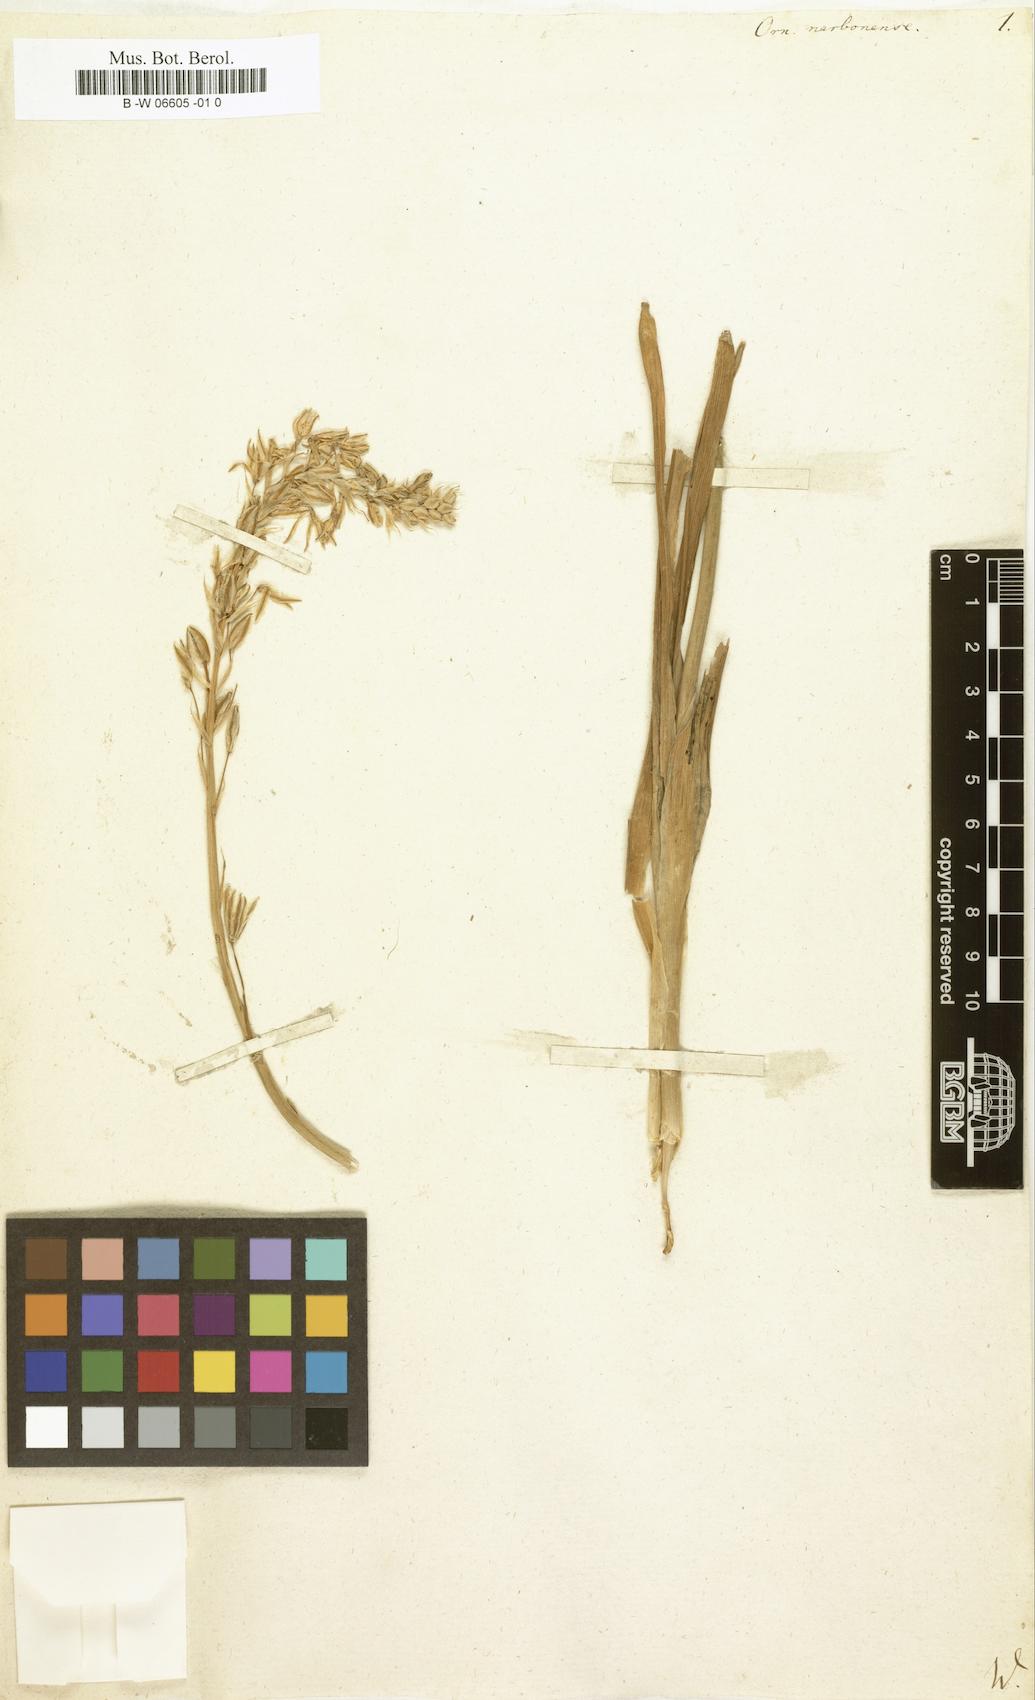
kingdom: Plantae
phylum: Tracheophyta
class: Liliopsida
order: Asparagales
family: Asparagaceae
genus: Ornithogalum
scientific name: Ornithogalum narbonense
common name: Bath-asparagus
